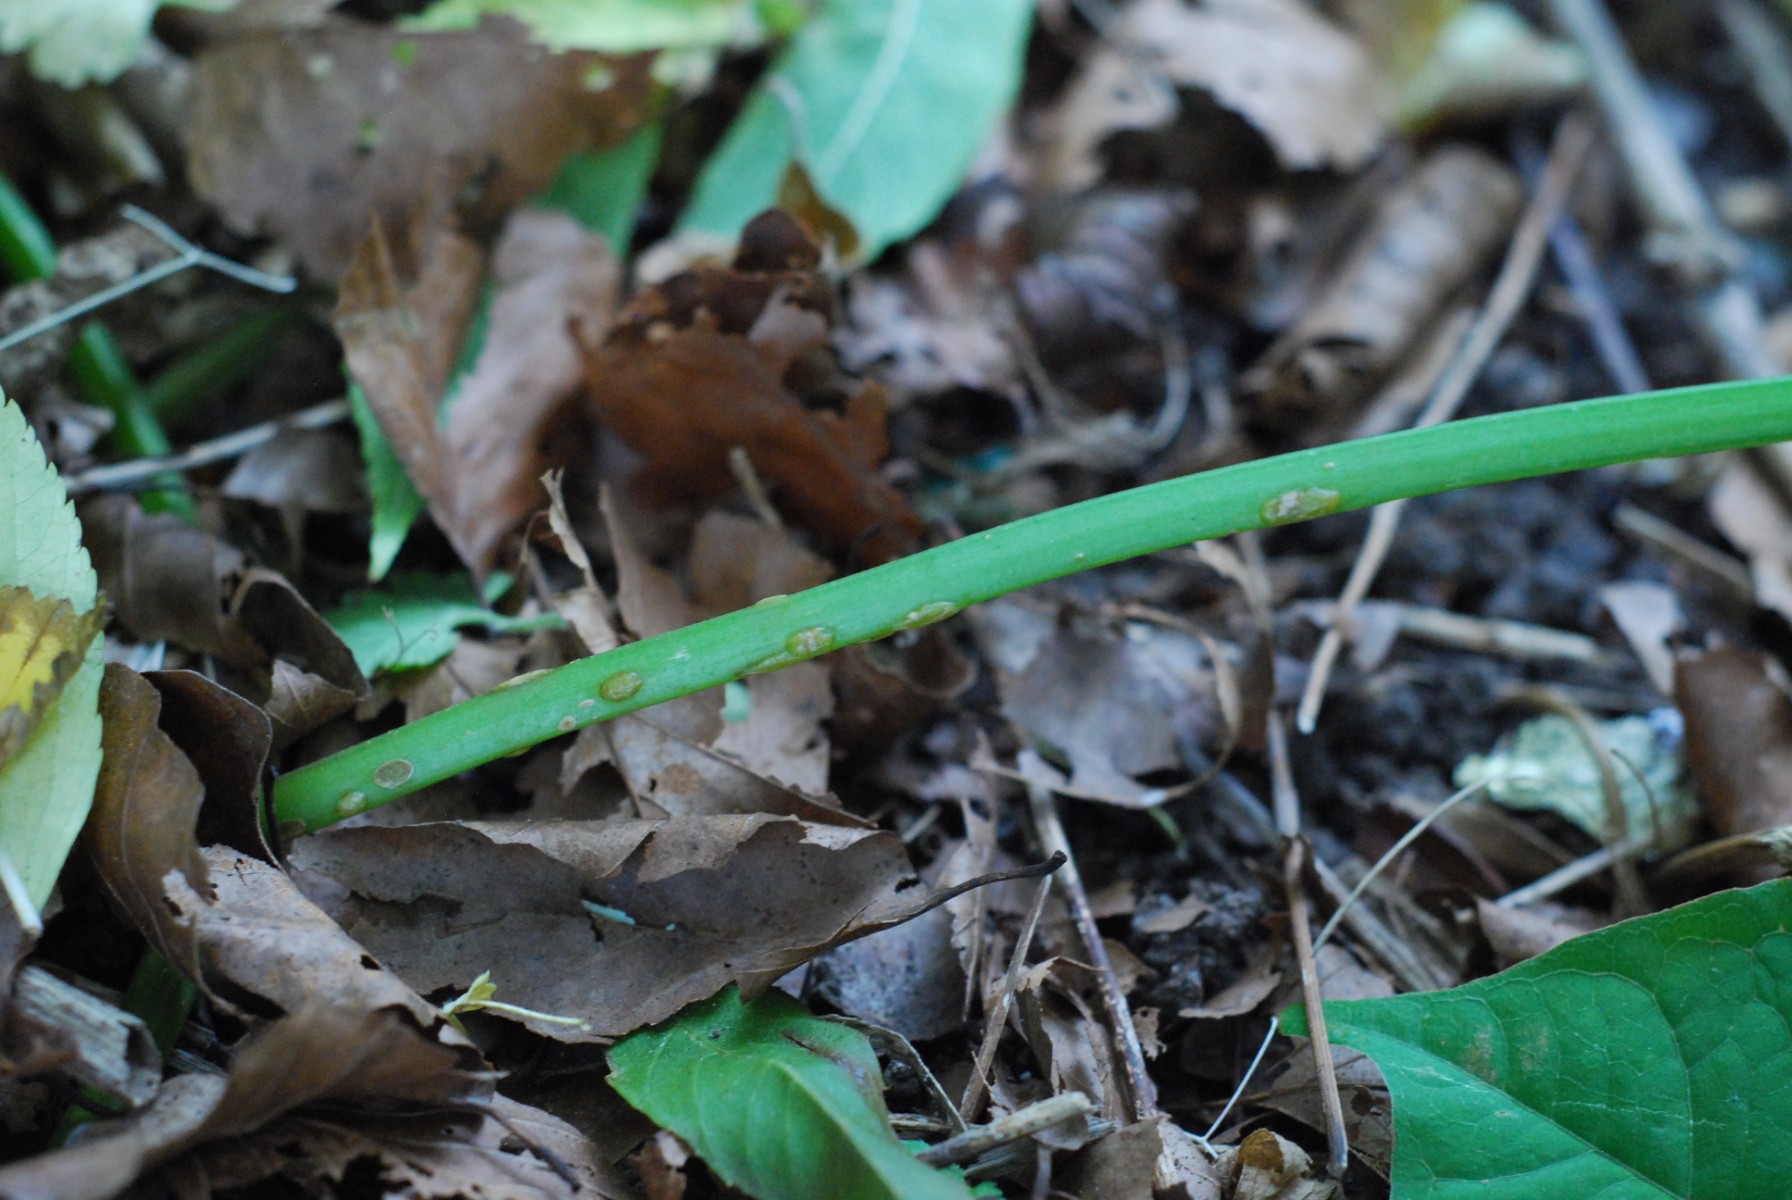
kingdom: Fungi
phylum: Ascomycota
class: Taphrinomycetes
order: Taphrinales
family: Taphrinaceae
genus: Protomyces
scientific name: Protomyces macrosporus
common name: skvalderkål-vablesæk
